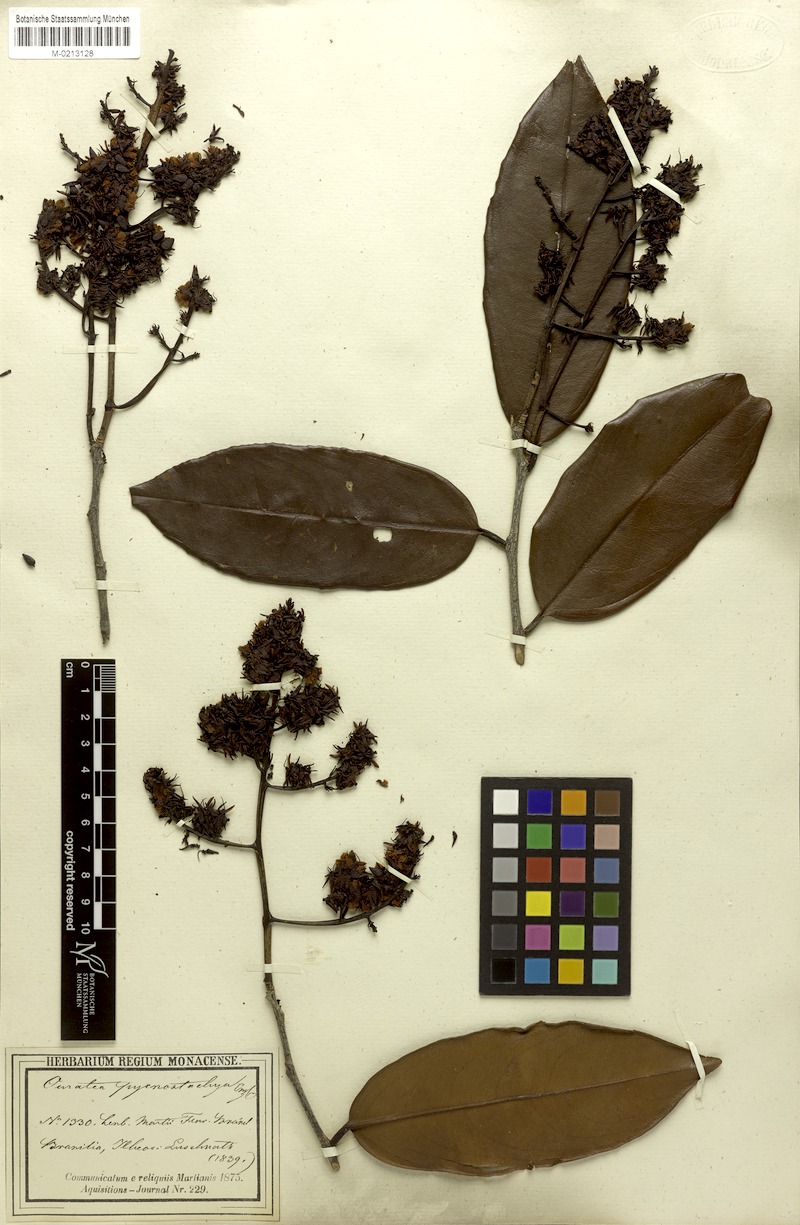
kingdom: Plantae
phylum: Tracheophyta
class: Magnoliopsida
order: Malpighiales
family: Ochnaceae
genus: Ouratea
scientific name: Ouratea pycnostachys
